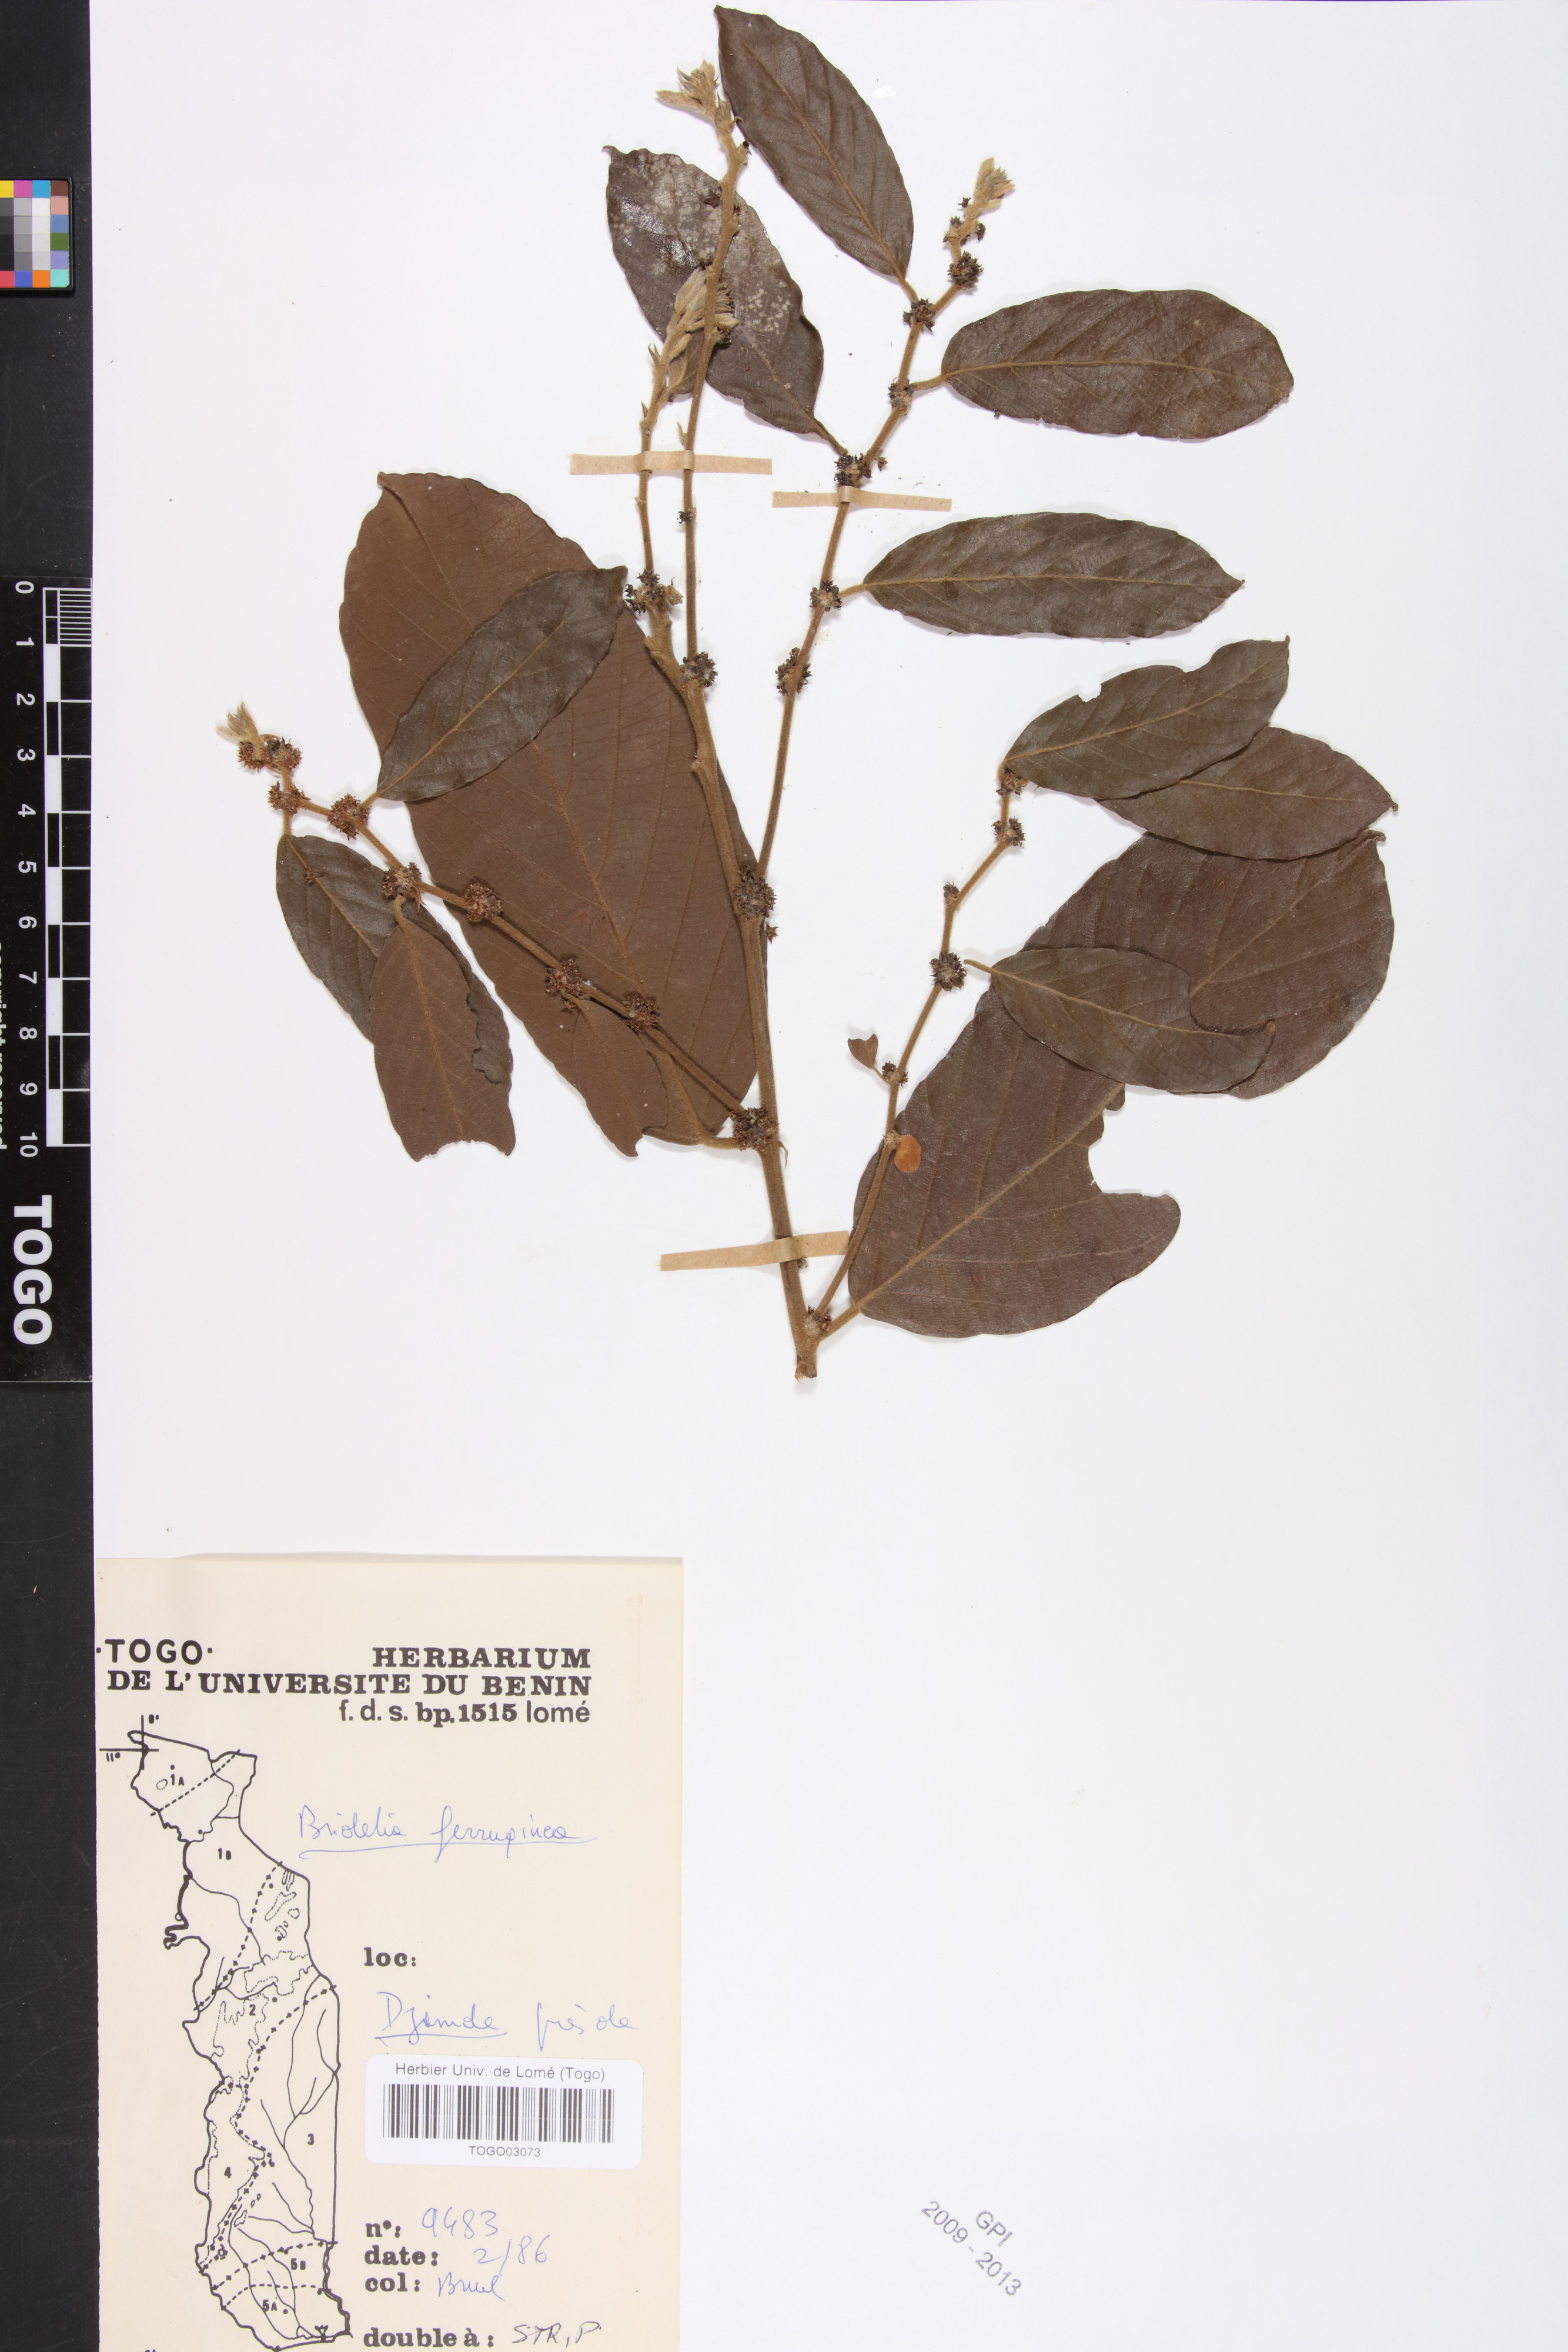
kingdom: Plantae
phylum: Tracheophyta
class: Magnoliopsida
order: Malpighiales
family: Phyllanthaceae
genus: Bridelia
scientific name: Bridelia ferruginea
